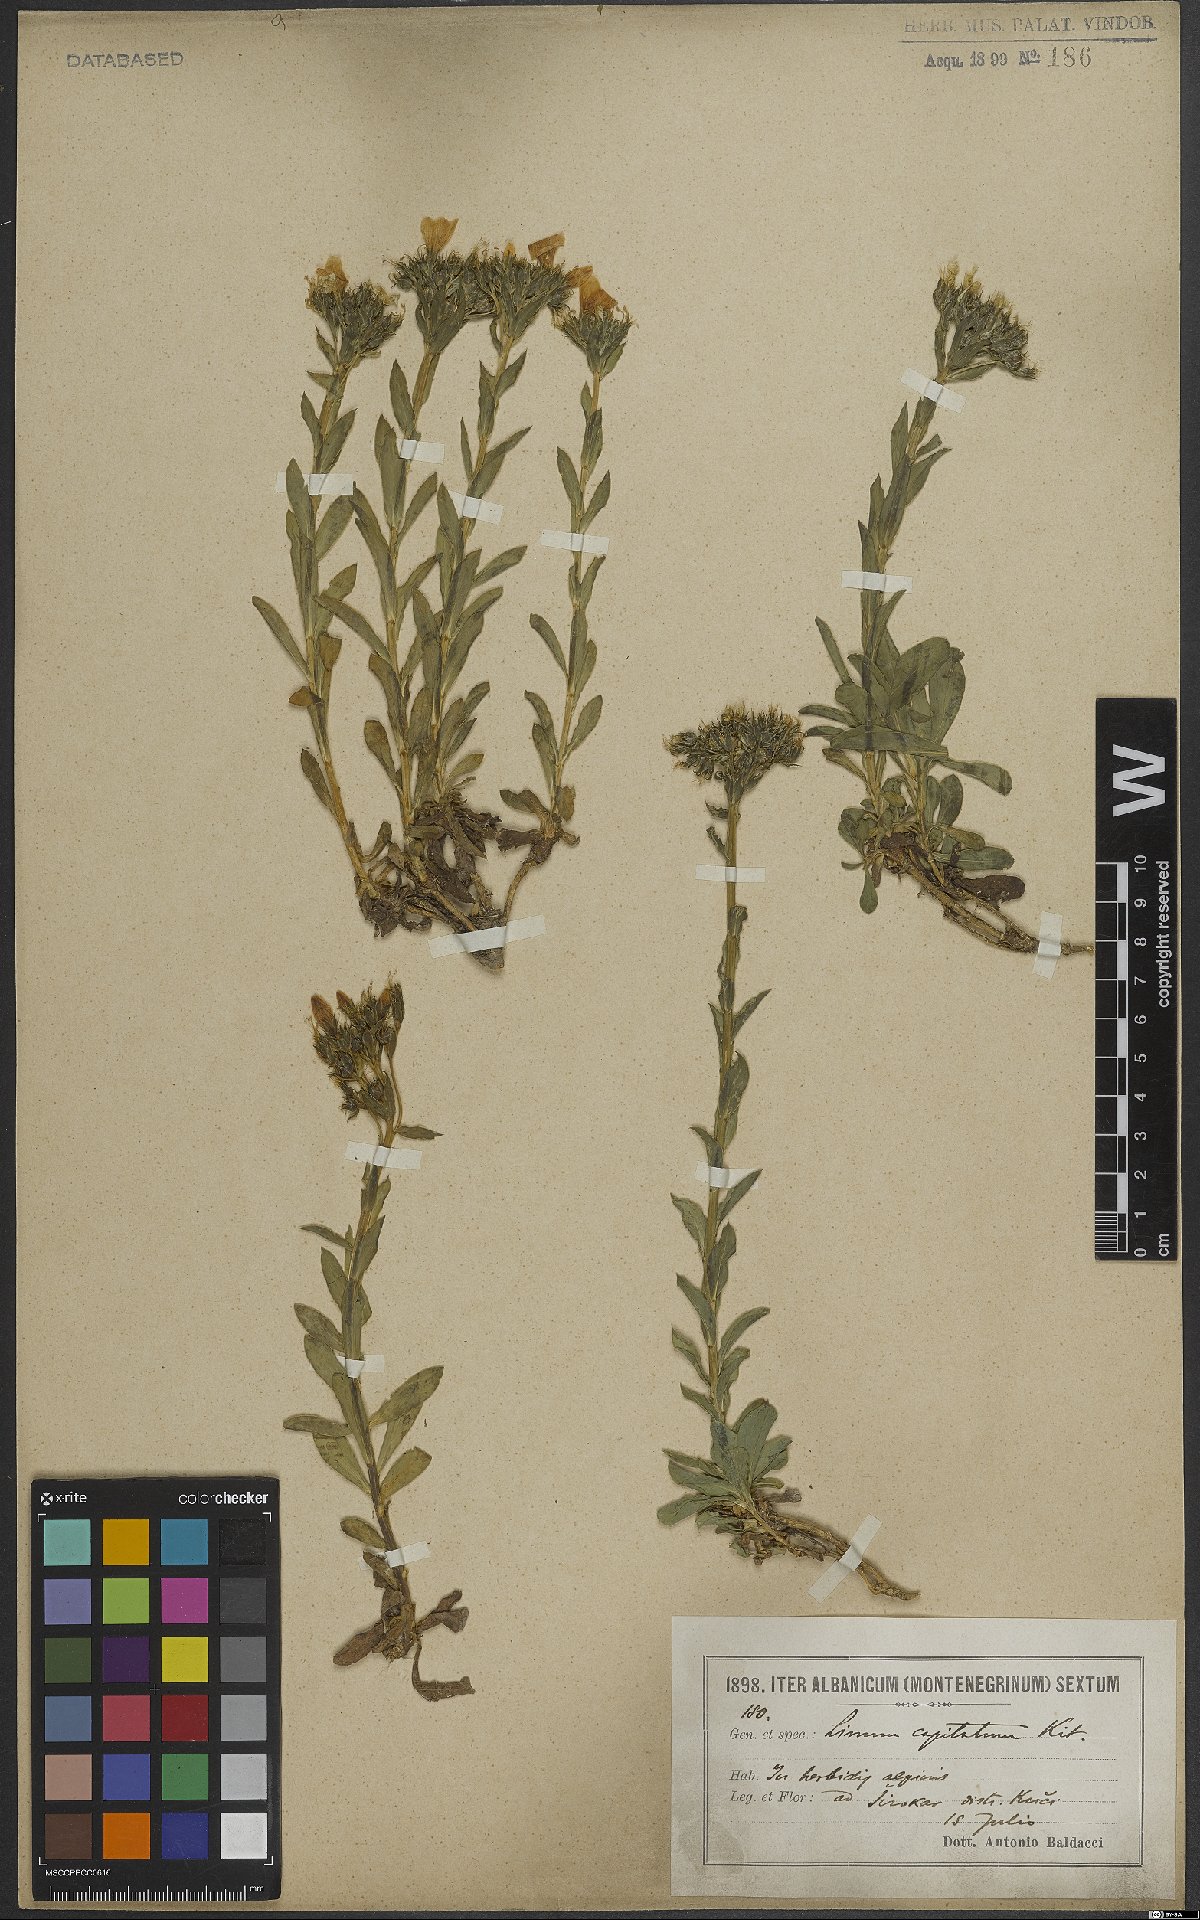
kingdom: Plantae
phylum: Tracheophyta
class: Magnoliopsida
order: Malpighiales
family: Linaceae
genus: Linum
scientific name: Linum capitatum
